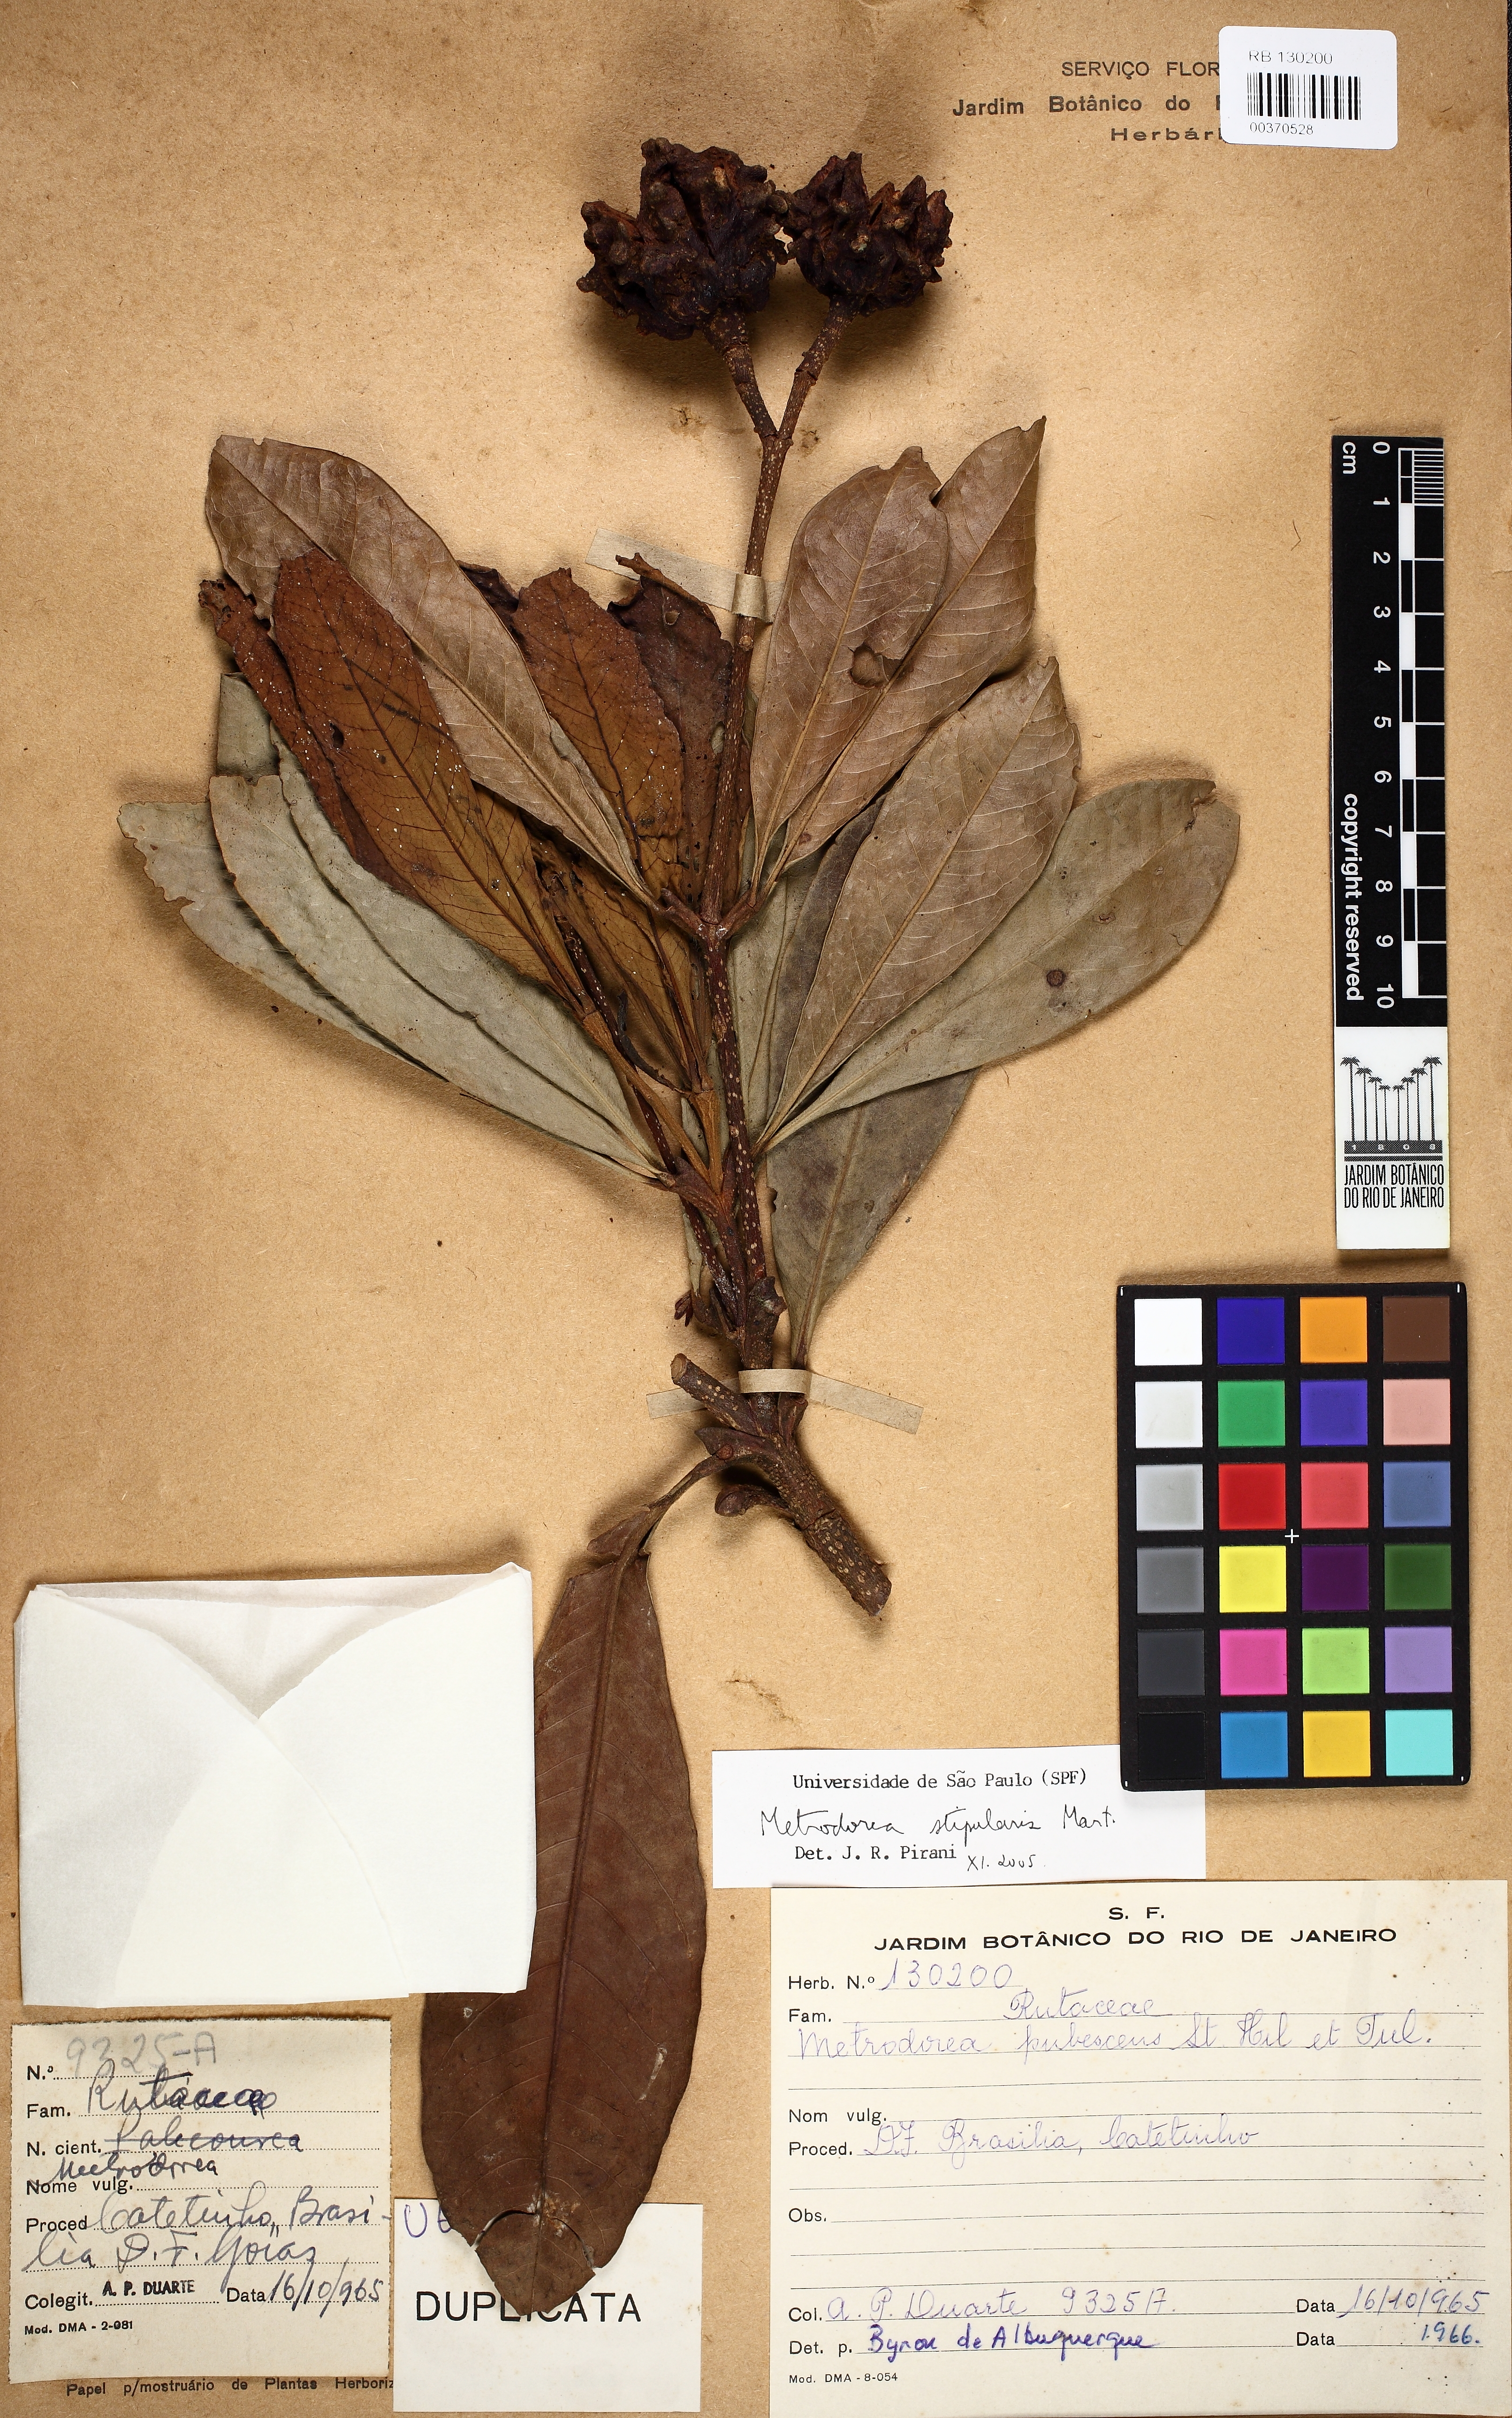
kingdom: Plantae
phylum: Tracheophyta
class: Magnoliopsida
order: Sapindales
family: Rutaceae
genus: Metrodorea
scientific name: Metrodorea stipularis
